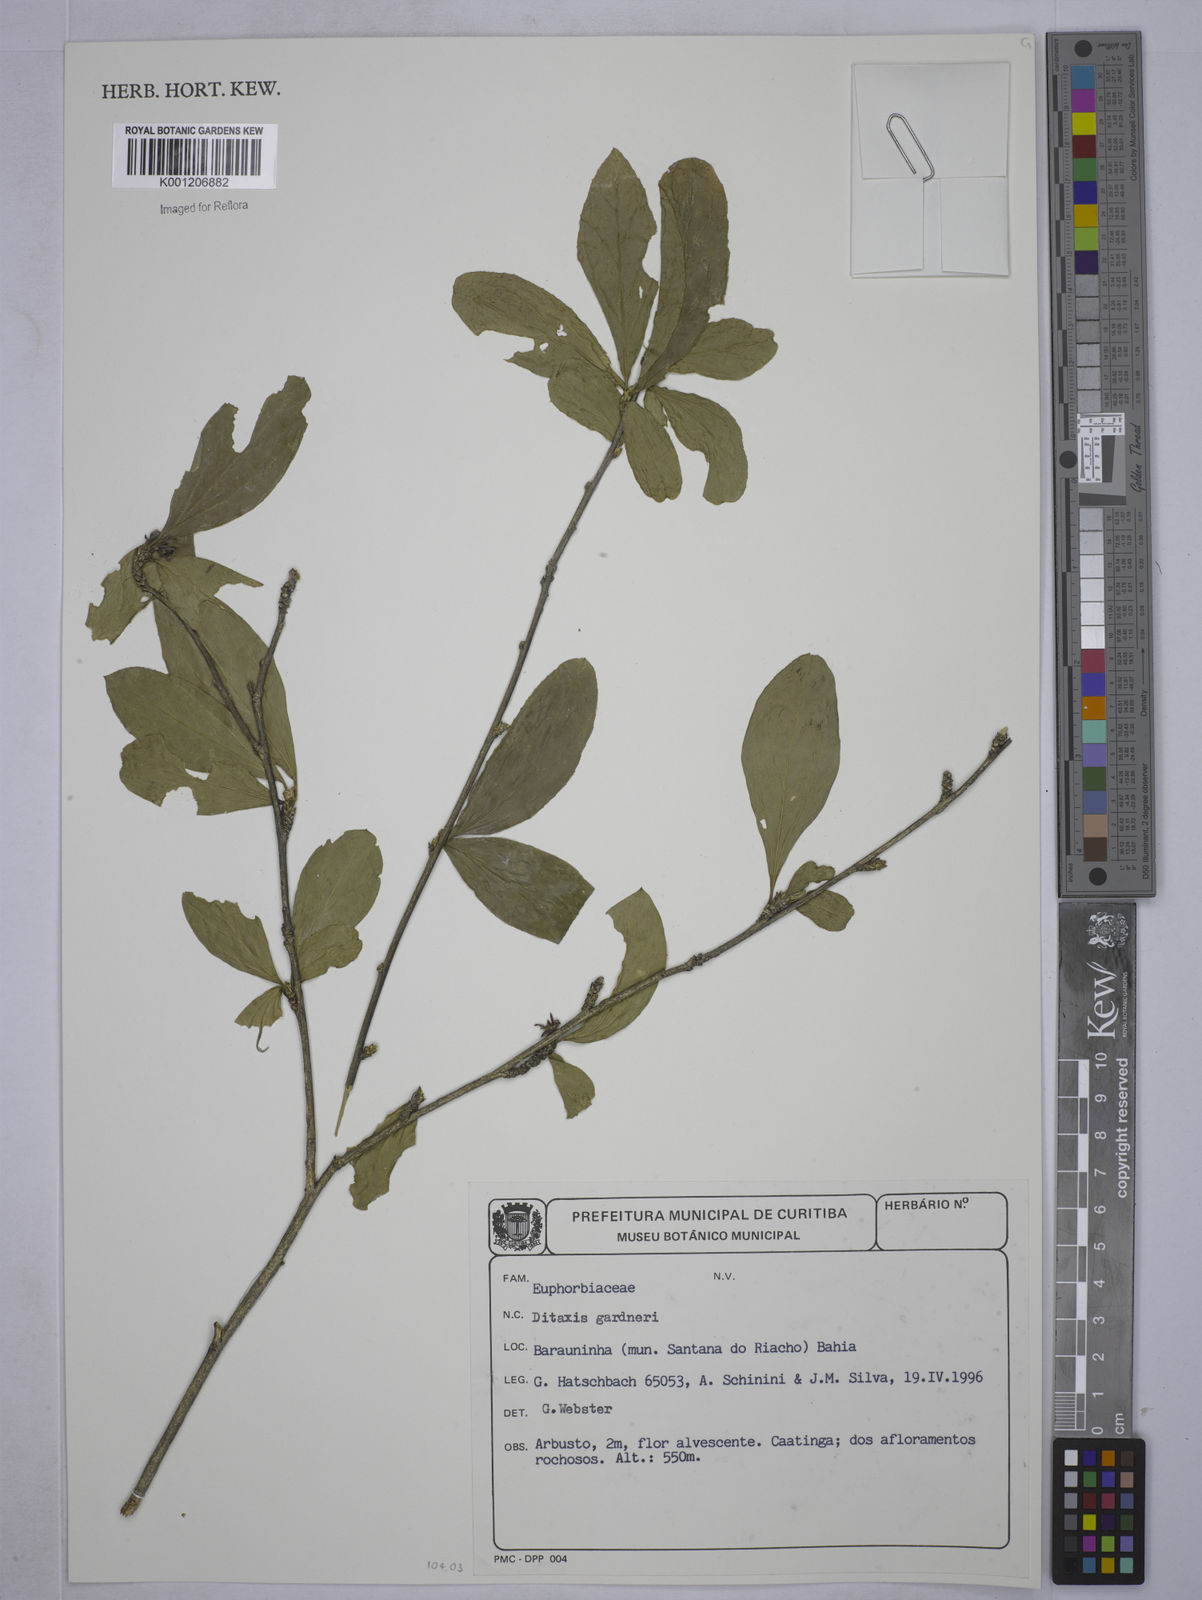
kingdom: Plantae
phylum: Tracheophyta
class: Magnoliopsida
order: Malpighiales
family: Euphorbiaceae
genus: Ditaxis
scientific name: Ditaxis
